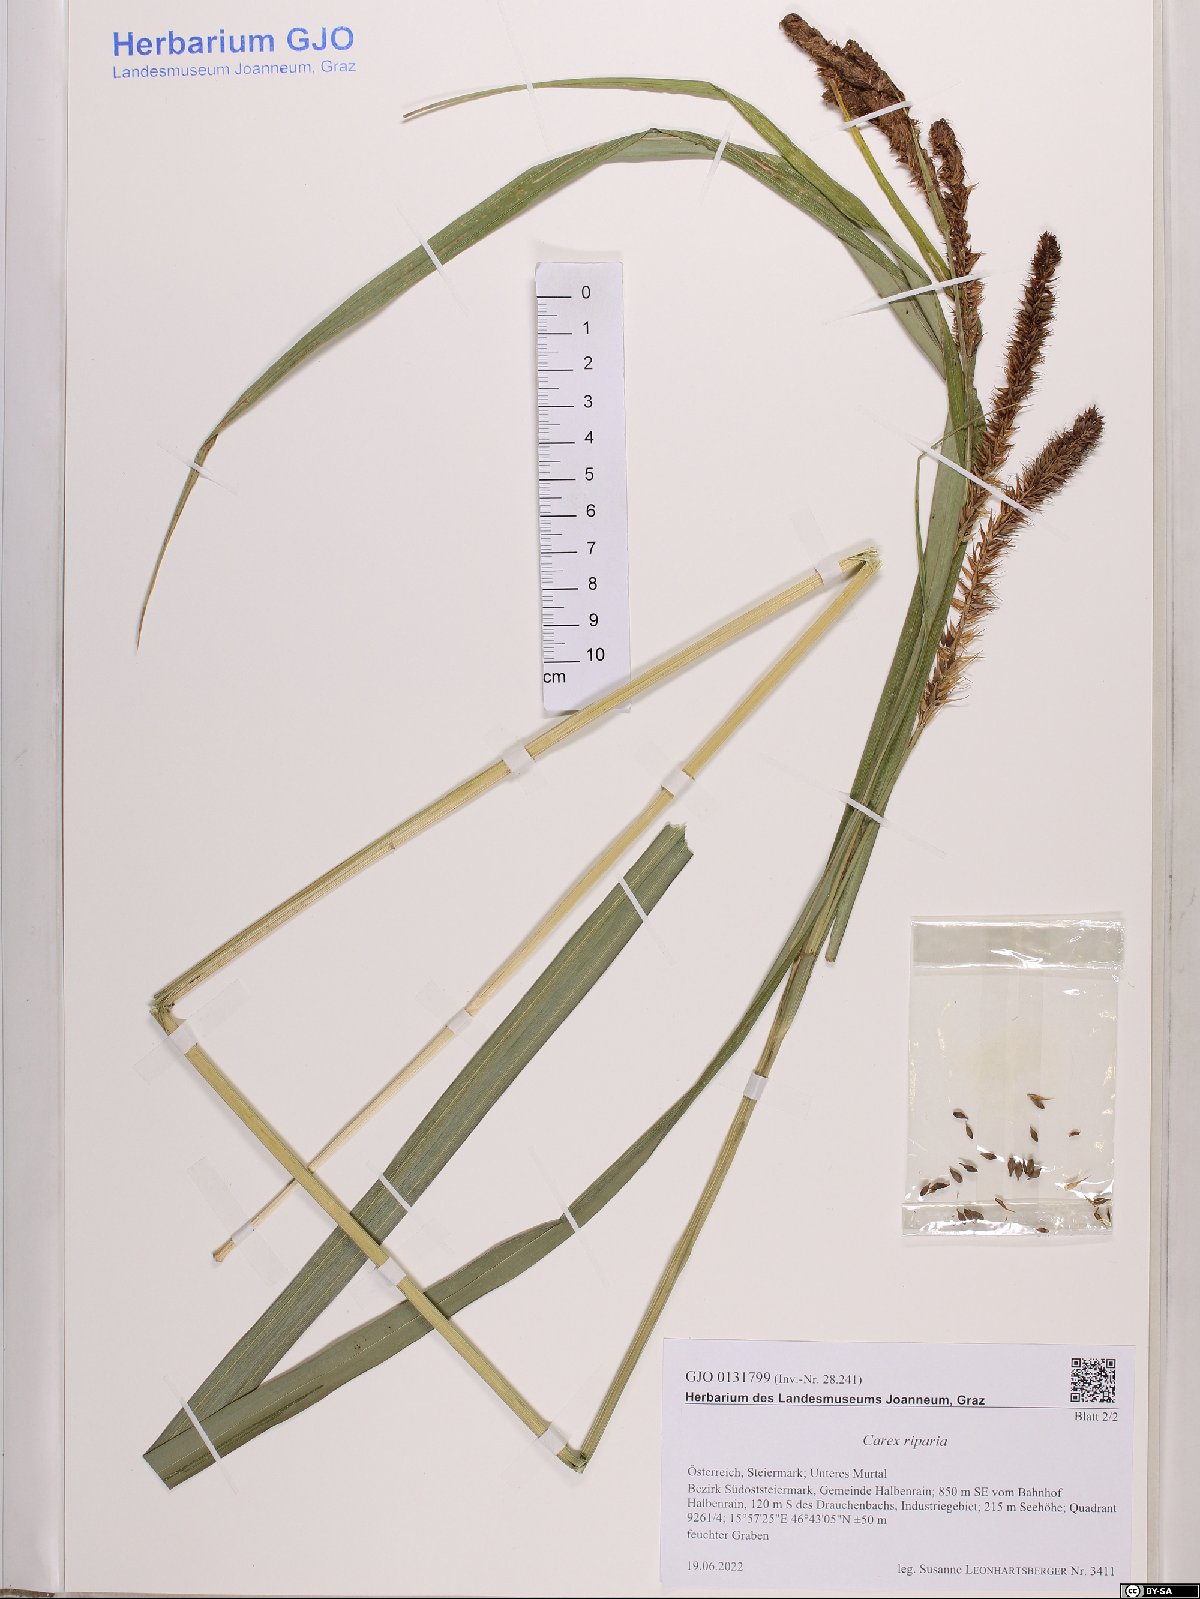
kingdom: Plantae
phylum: Tracheophyta
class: Liliopsida
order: Poales
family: Cyperaceae
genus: Carex
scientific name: Carex riparia
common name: Greater pond-sedge
